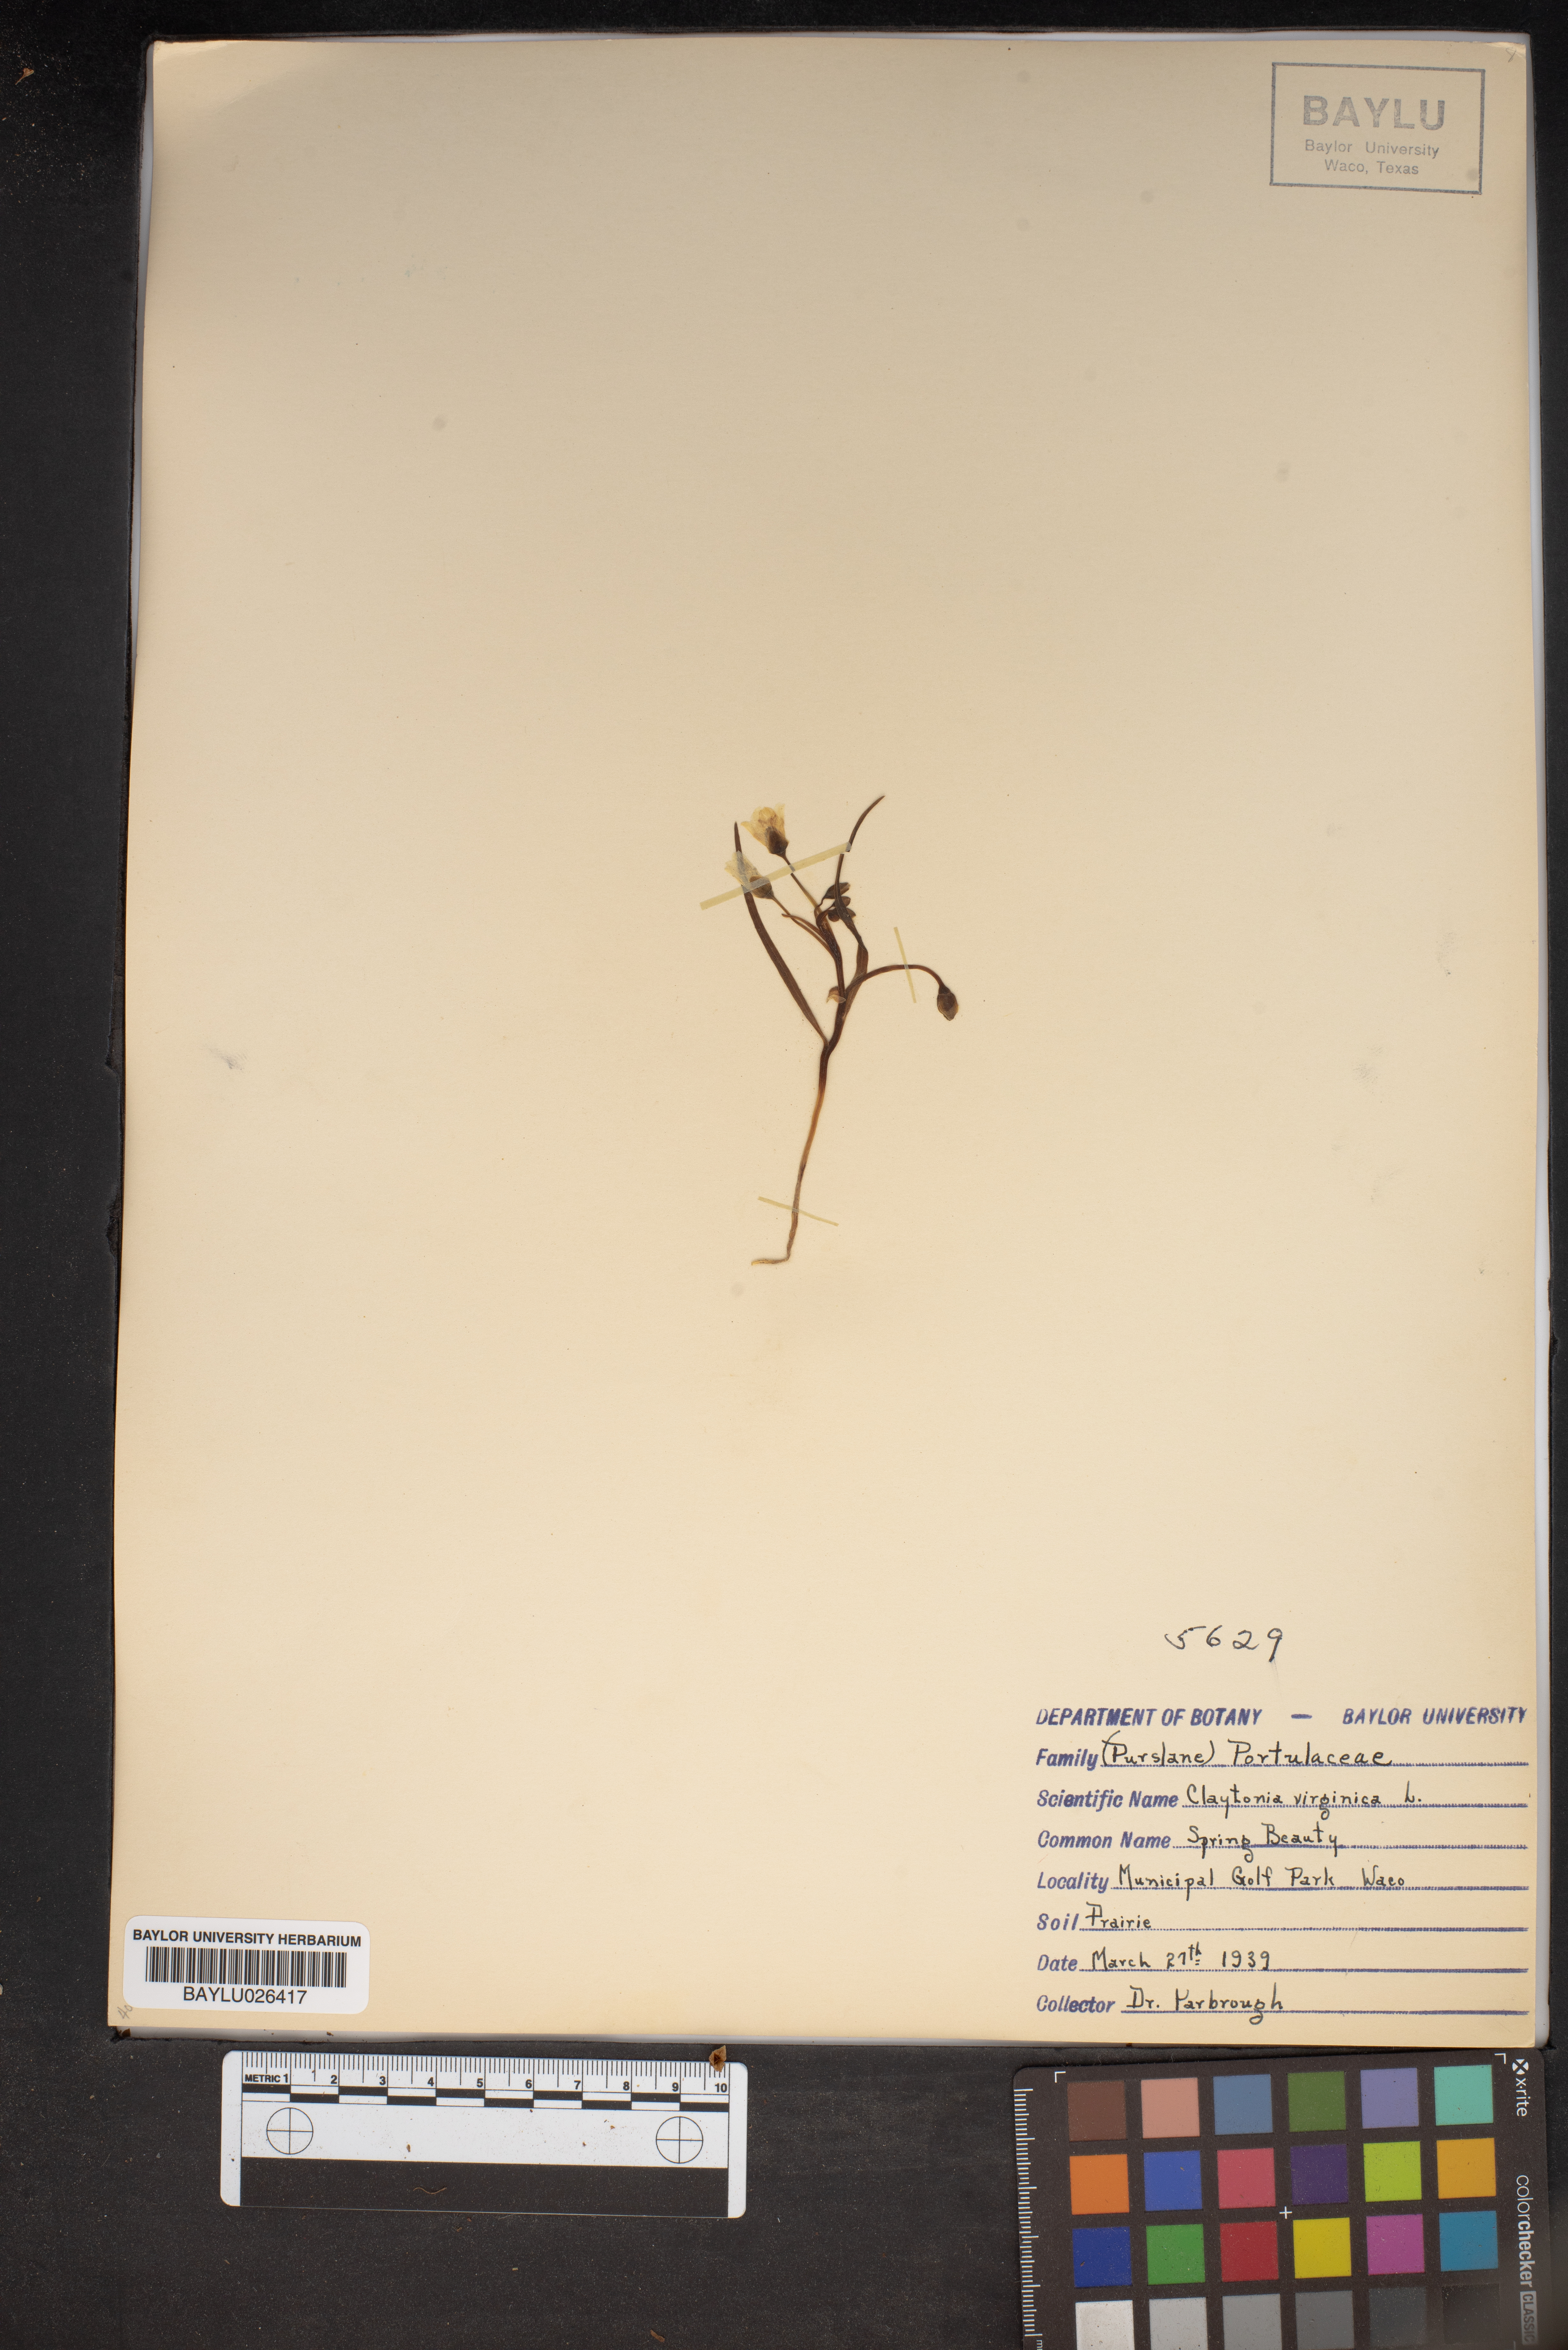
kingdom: Plantae
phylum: Tracheophyta
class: Magnoliopsida
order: Caryophyllales
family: Montiaceae
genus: Claytonia
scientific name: Claytonia virginica
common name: Virginia springbeauty
